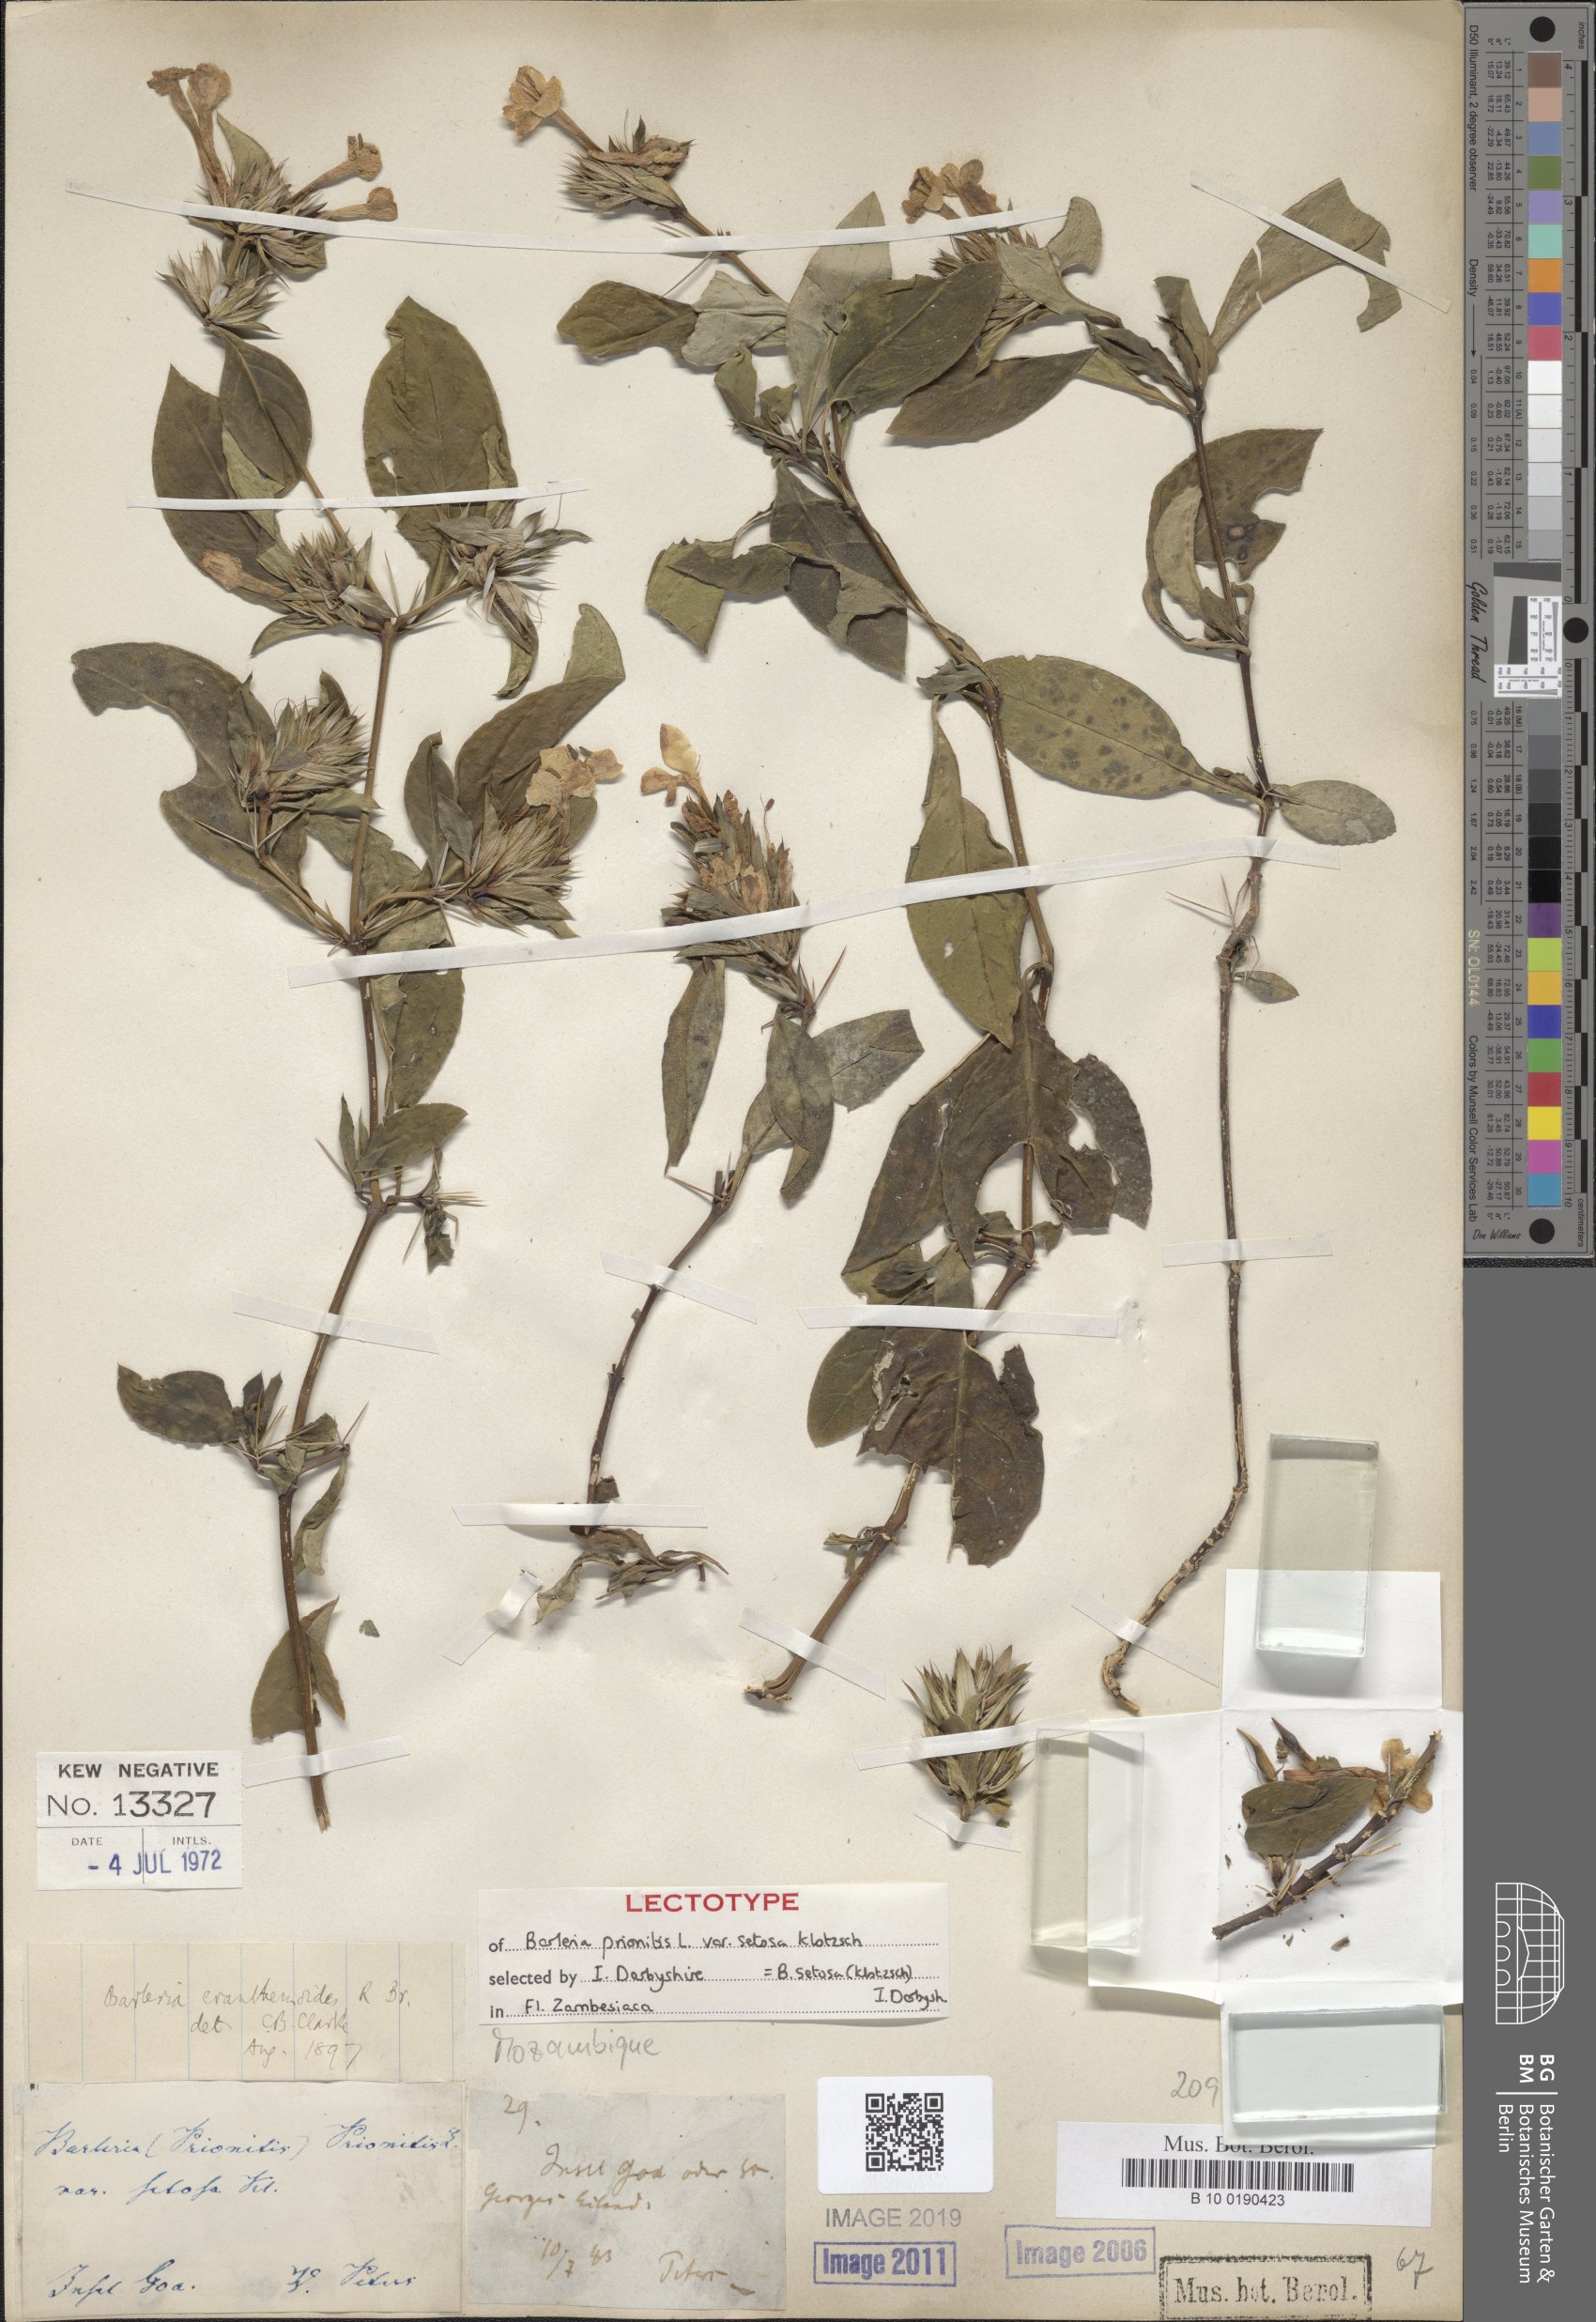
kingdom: Plantae
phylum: Tracheophyta
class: Magnoliopsida
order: Lamiales
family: Acanthaceae
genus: Barleria
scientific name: Barleria eranthemoides
